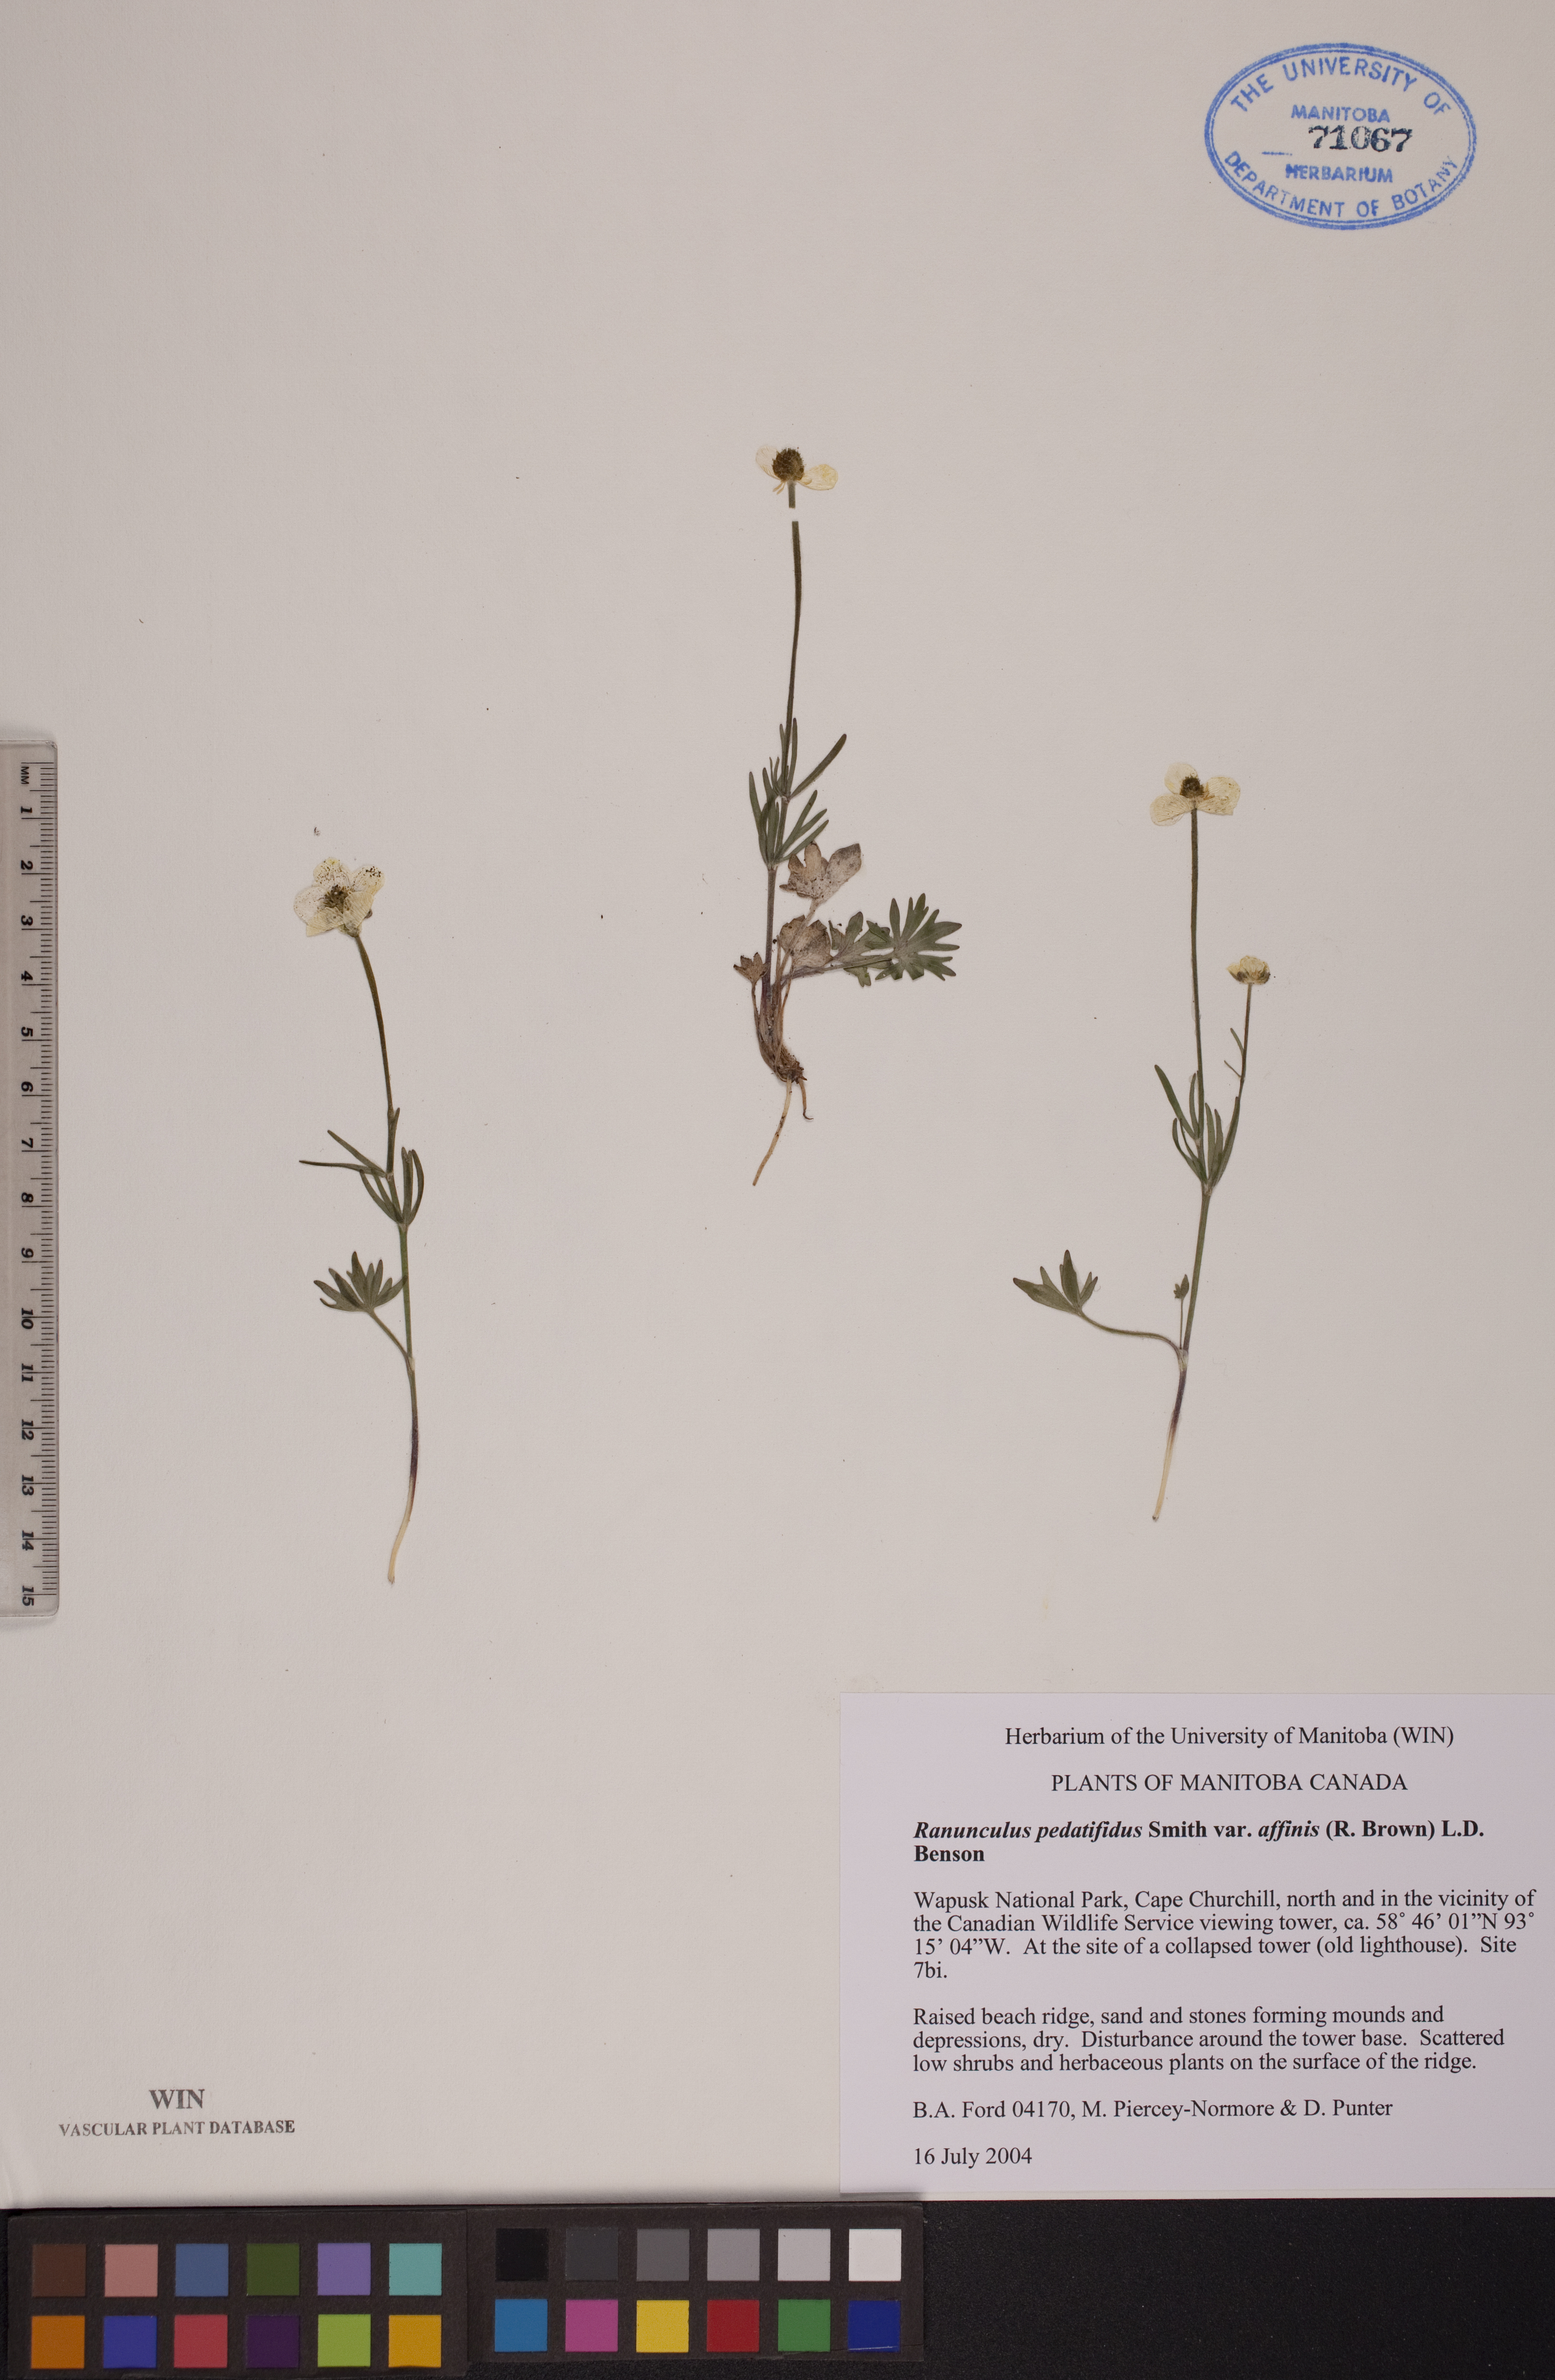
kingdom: Plantae
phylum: Tracheophyta
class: Magnoliopsida
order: Ranunculales
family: Ranunculaceae
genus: Ranunculus
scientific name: Ranunculus arcticus
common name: Bird's-foot buttercup
